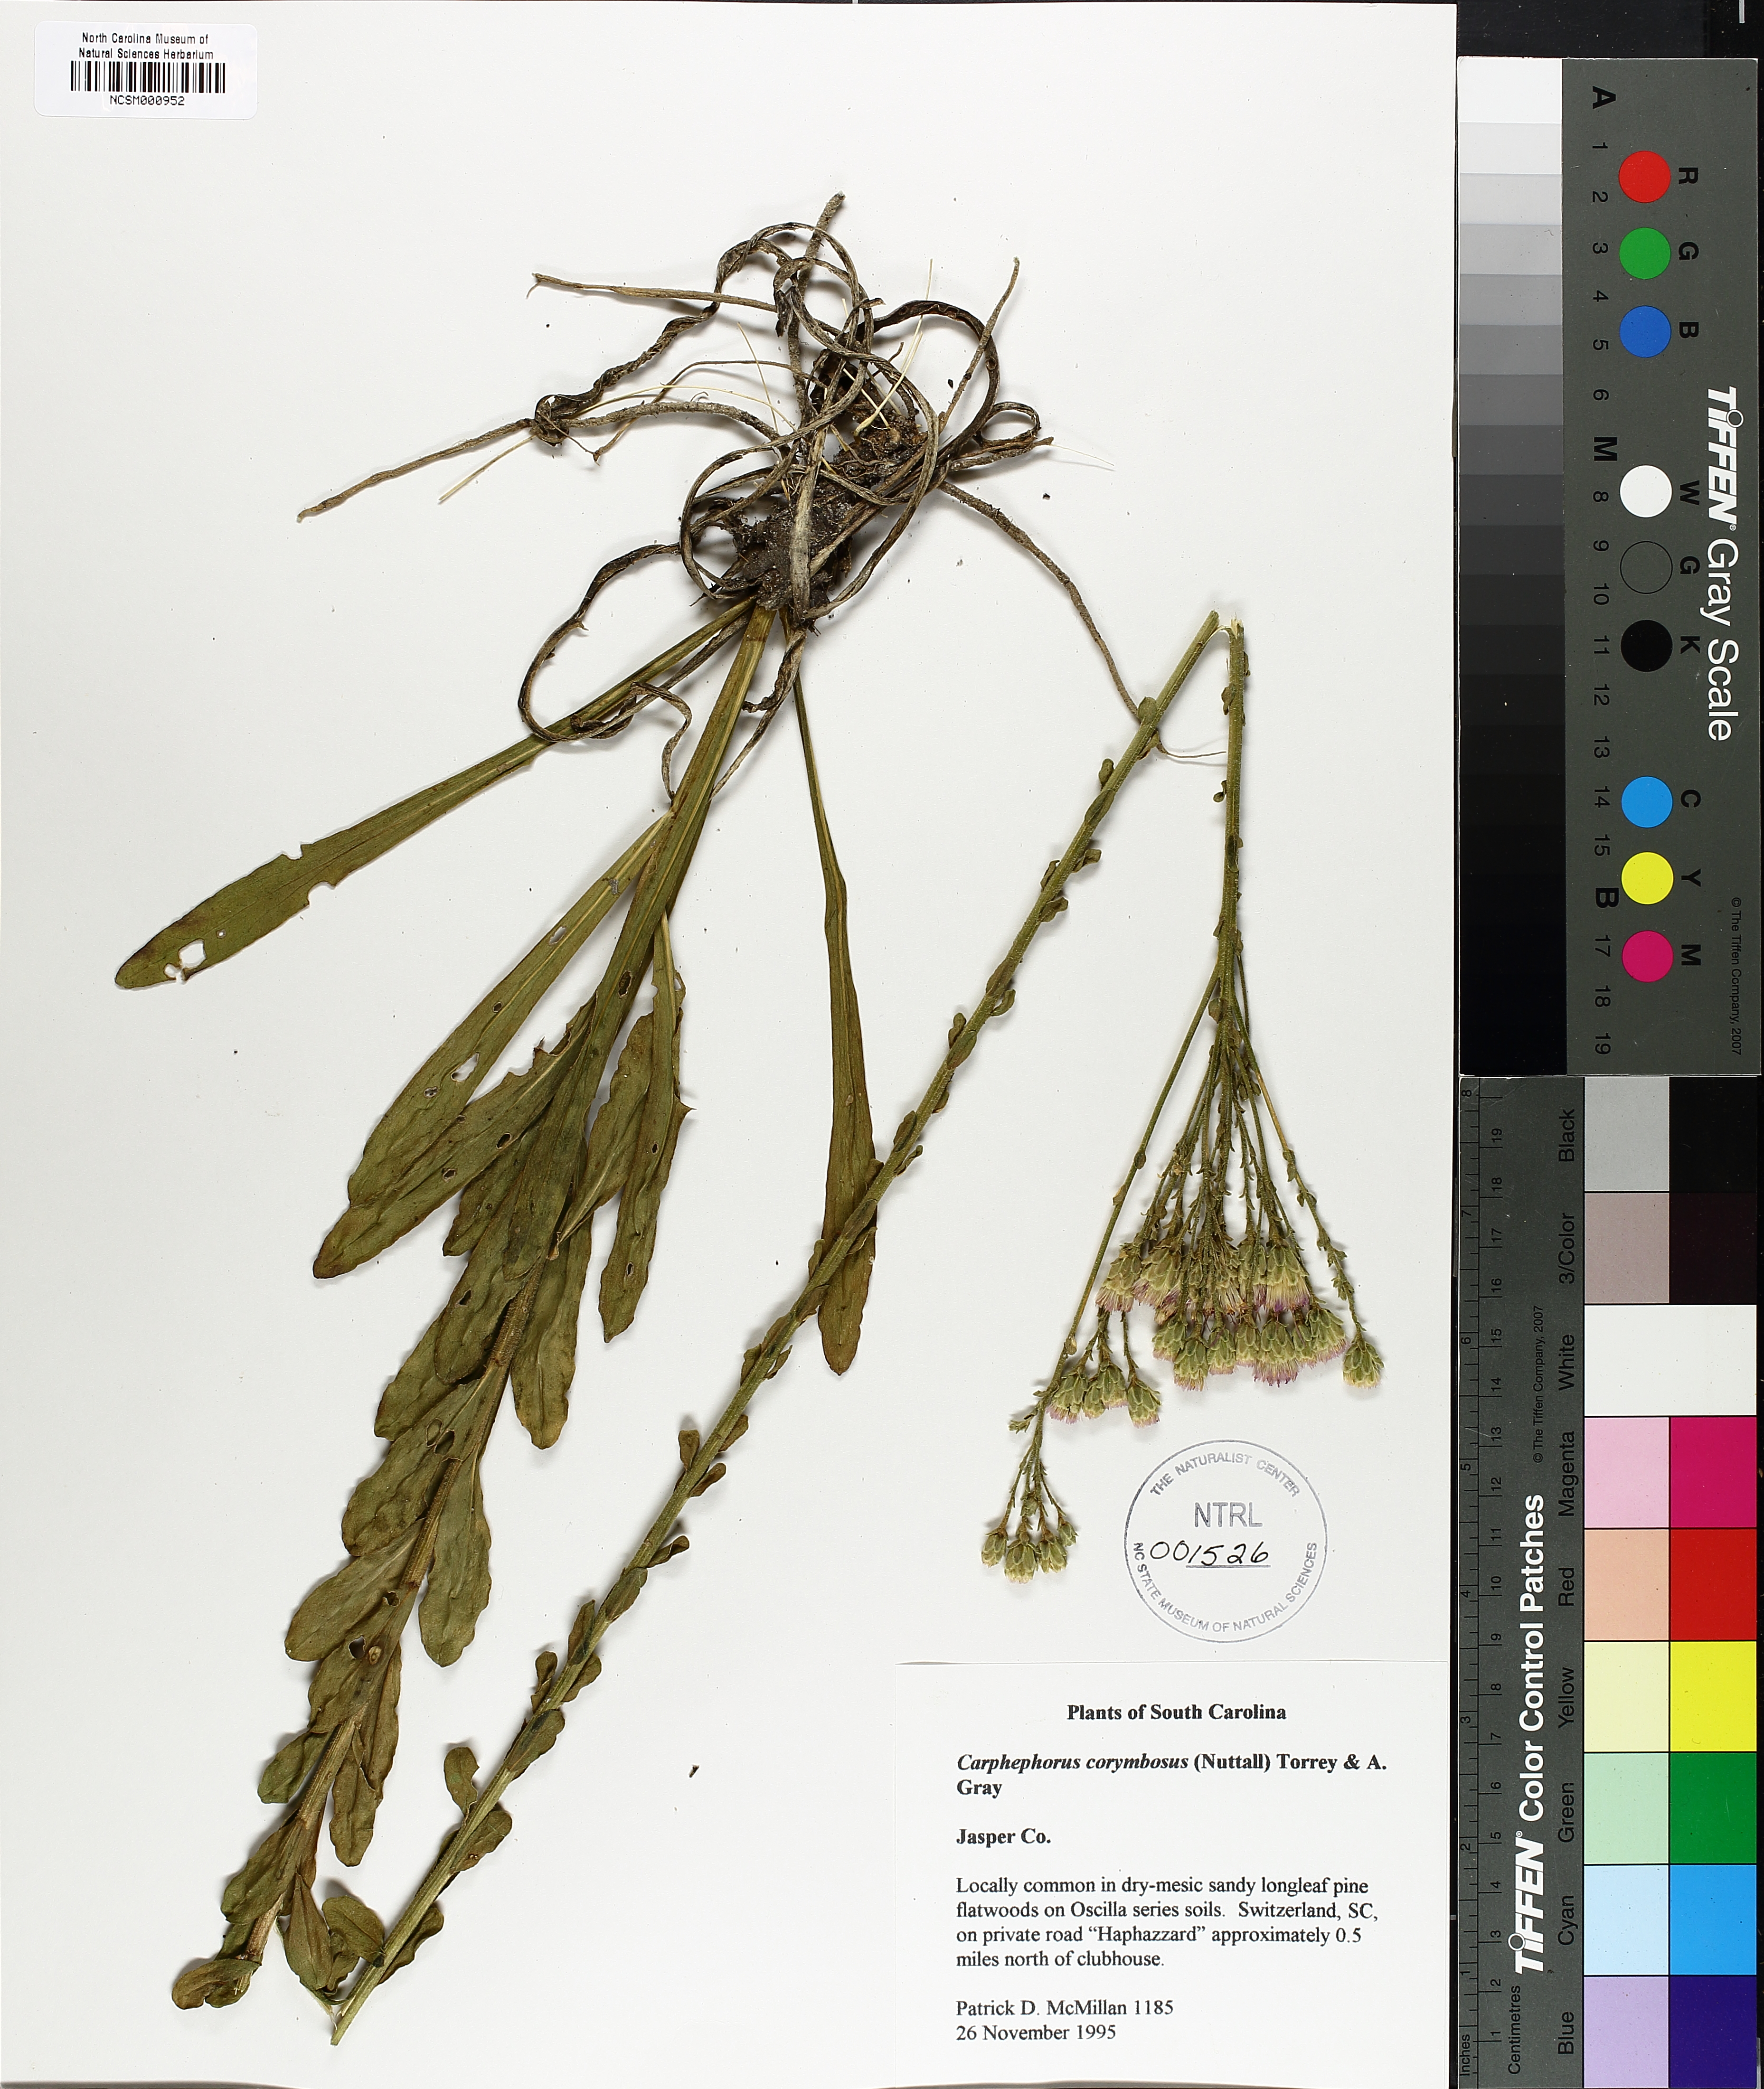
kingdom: Plantae
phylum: Tracheophyta
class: Magnoliopsida
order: Asterales
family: Asteraceae
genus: Carphephorus
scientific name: Carphephorus corymbosus
